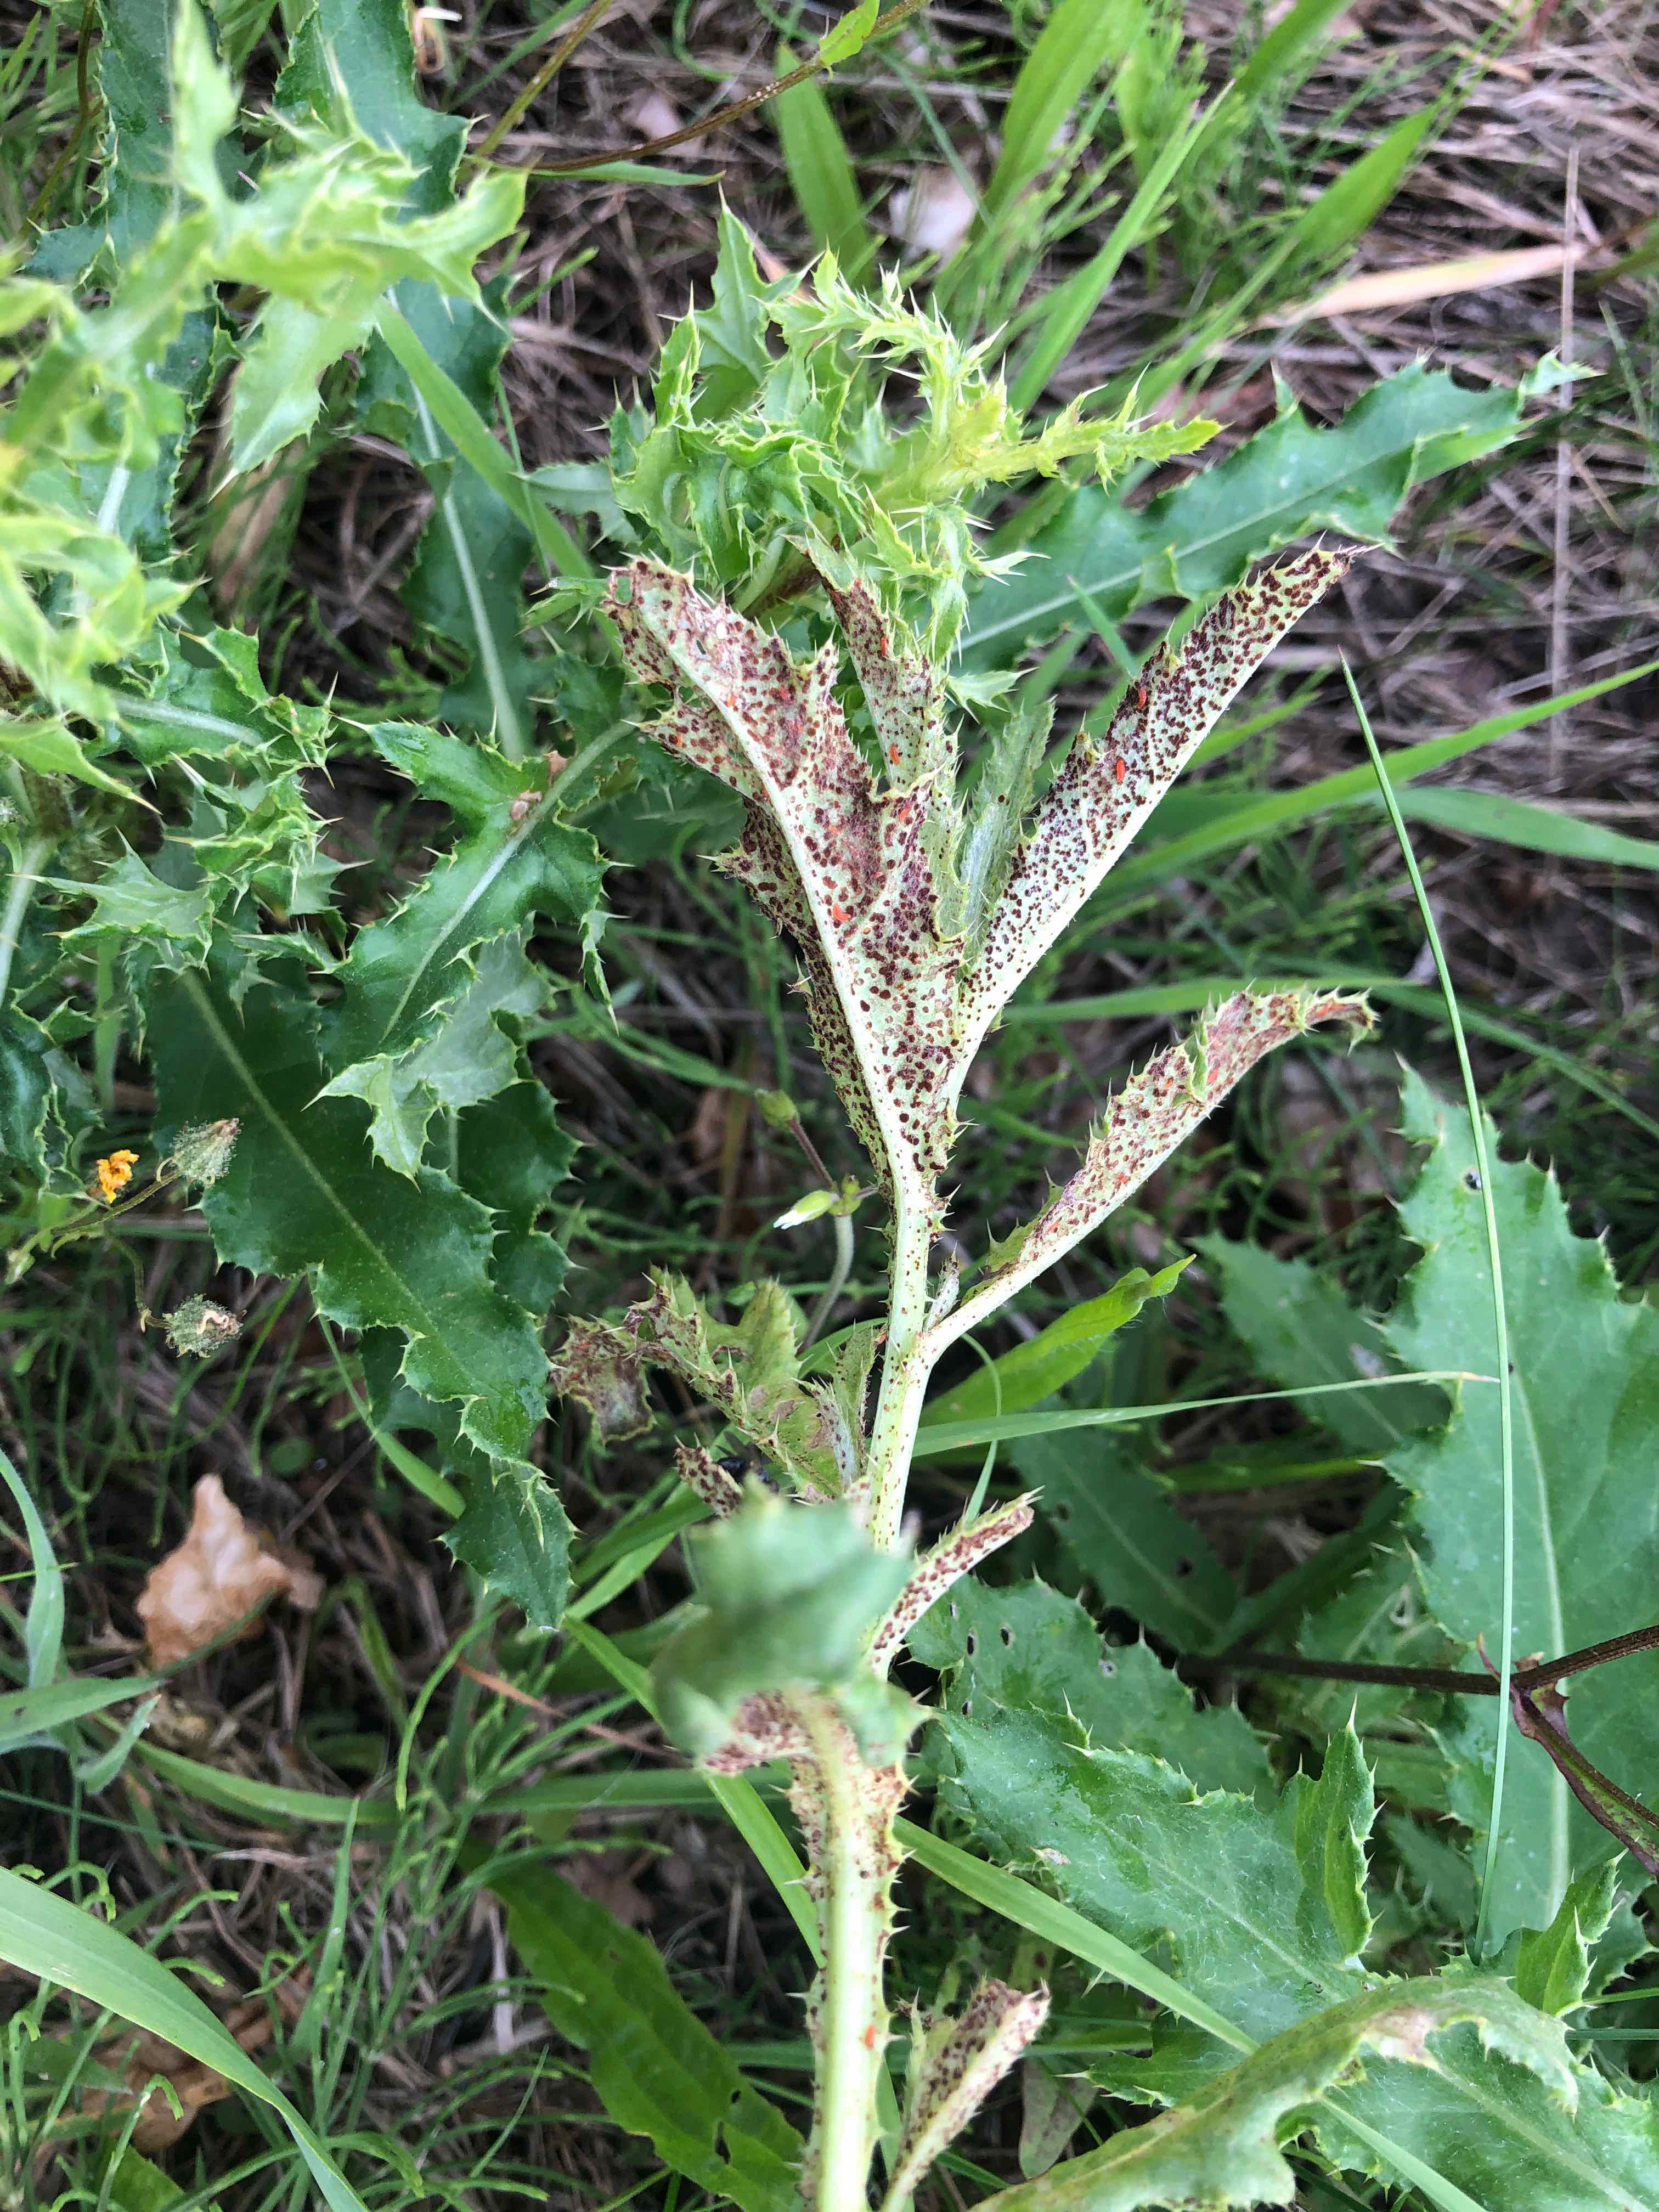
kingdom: Fungi
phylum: Basidiomycota
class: Pucciniomycetes
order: Pucciniales
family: Pucciniaceae
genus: Puccinia
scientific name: Puccinia suaveolens
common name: tidsel-tvecellerust
